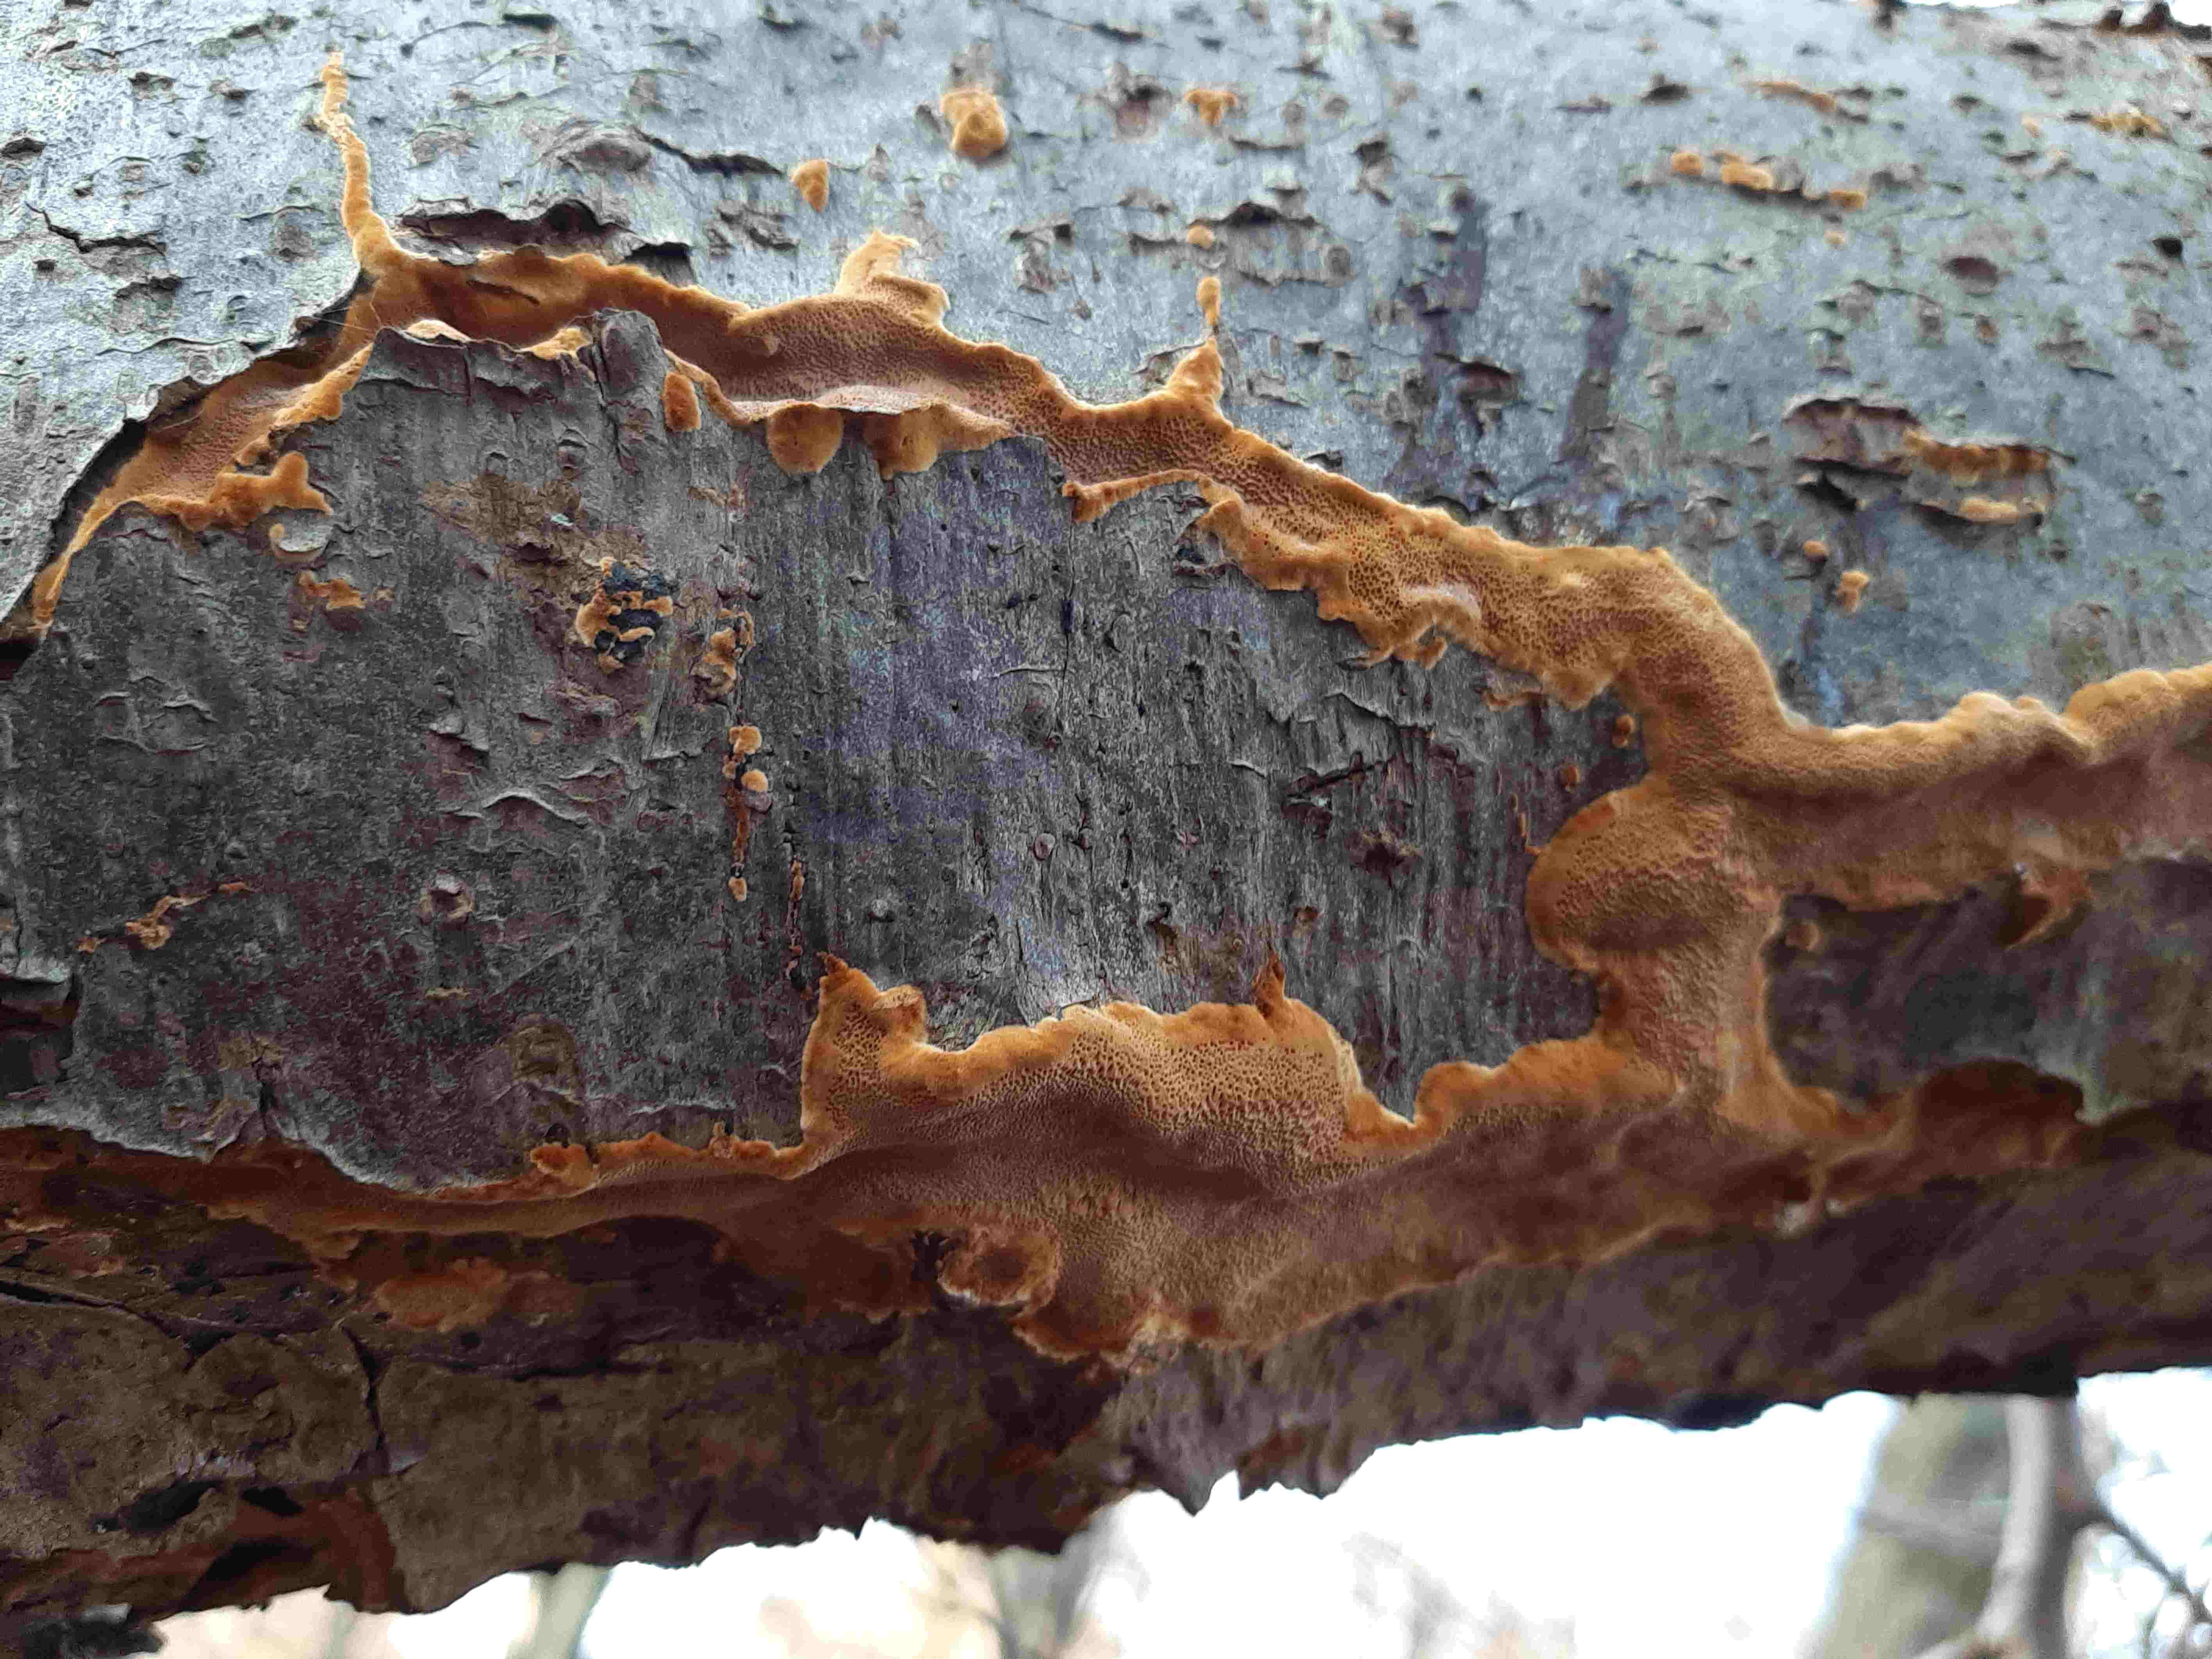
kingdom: Fungi
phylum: Basidiomycota
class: Agaricomycetes
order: Hymenochaetales
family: Hymenochaetaceae
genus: Fuscoporia
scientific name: Fuscoporia
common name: Ildporesvamp
